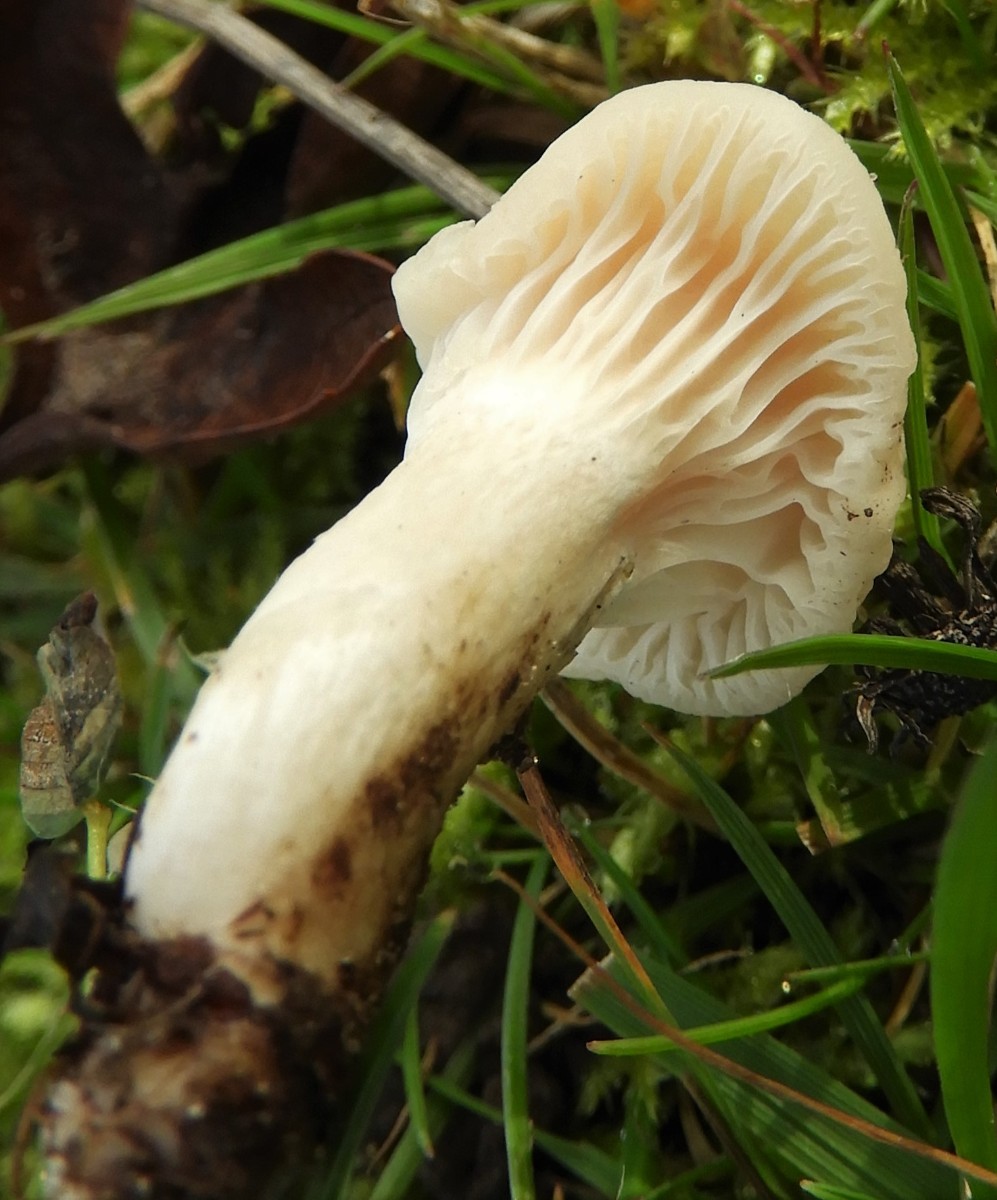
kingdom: Fungi
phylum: Basidiomycota
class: Agaricomycetes
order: Agaricales
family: Hygrophoraceae
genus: Cuphophyllus
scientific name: Cuphophyllus
